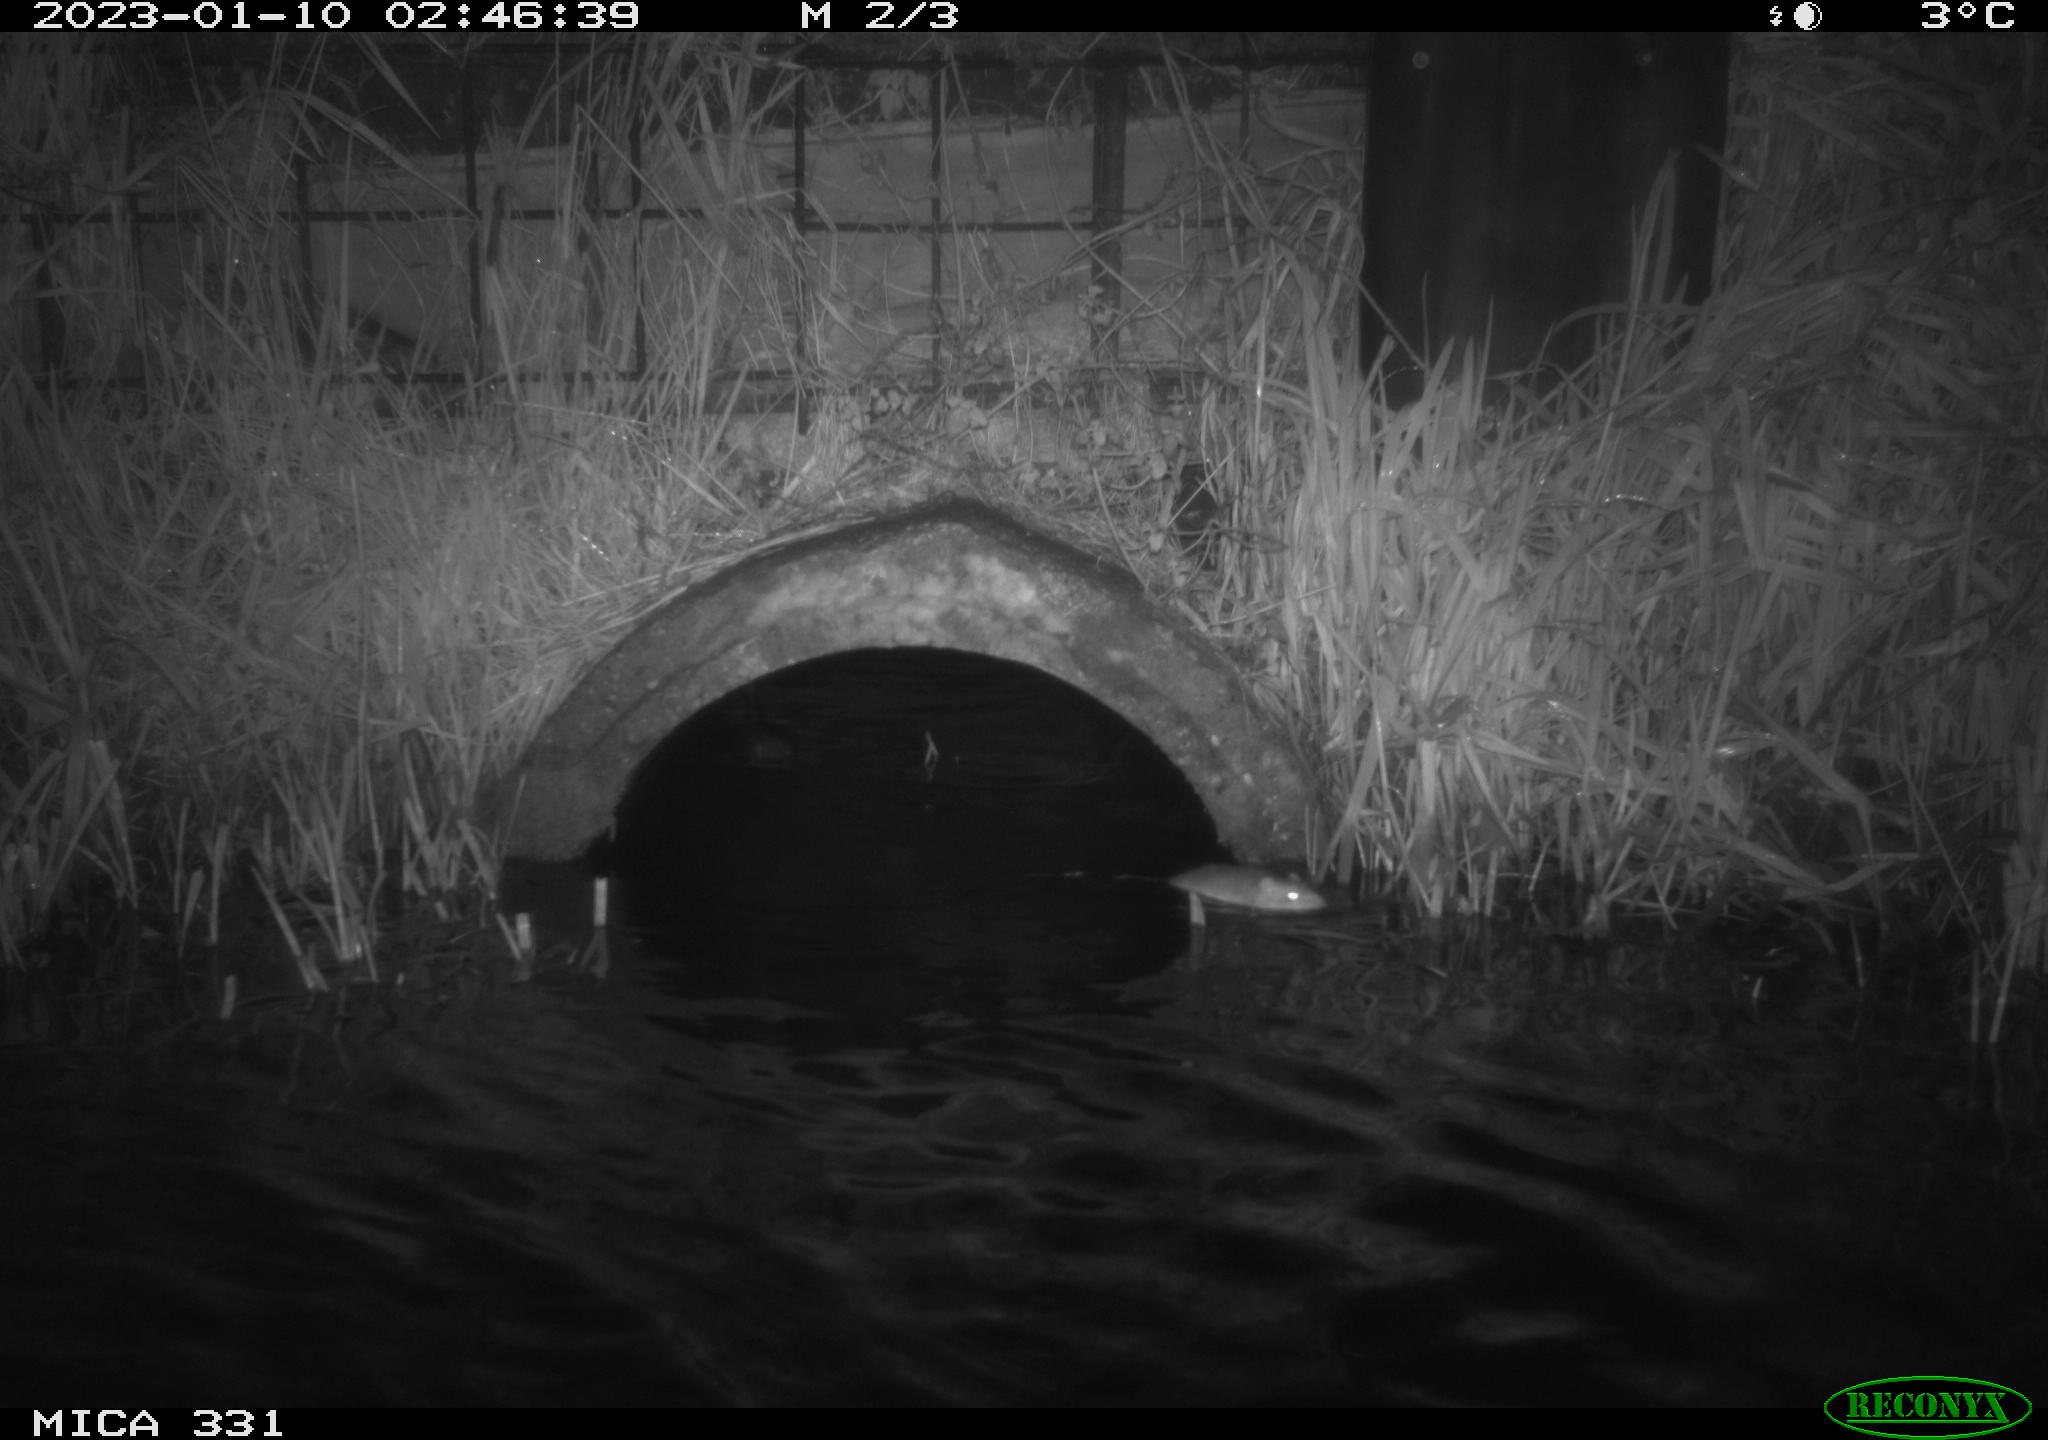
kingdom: Animalia
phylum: Chordata
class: Mammalia
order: Rodentia
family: Muridae
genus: Rattus
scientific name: Rattus norvegicus
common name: Brown rat
